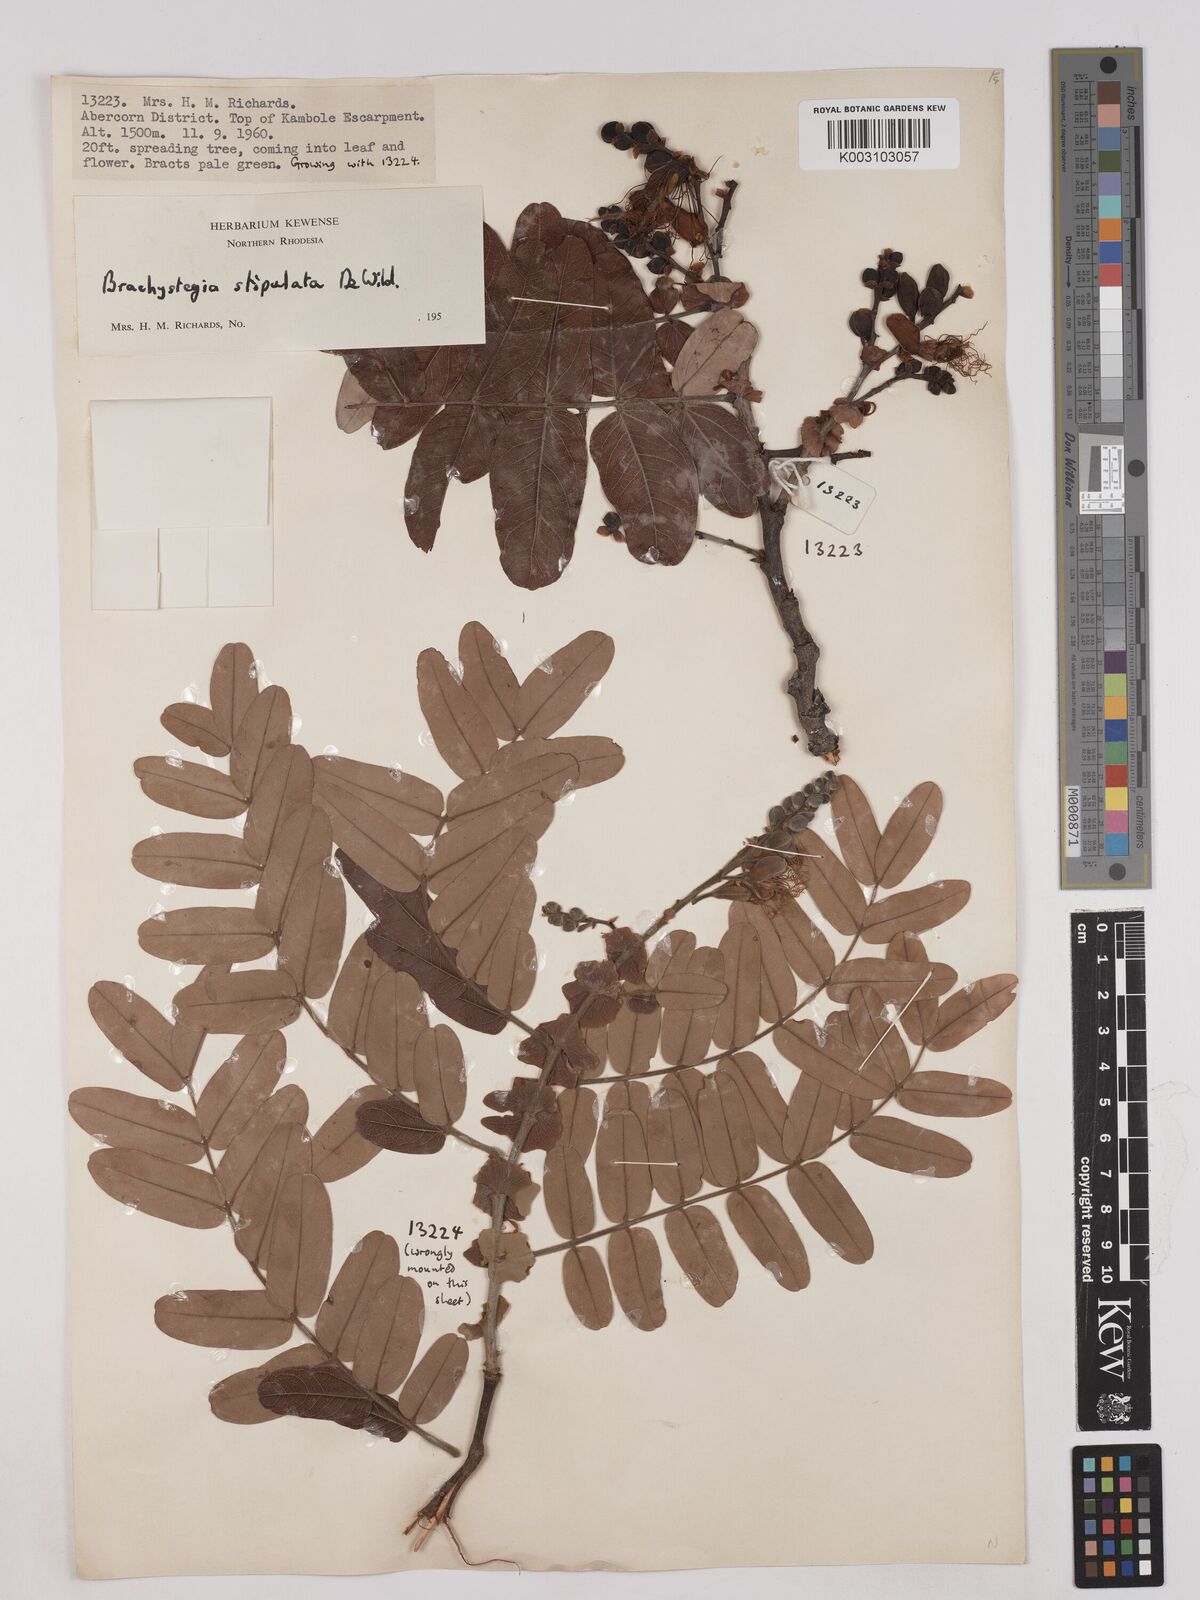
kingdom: Plantae
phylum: Tracheophyta
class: Magnoliopsida
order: Fabales
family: Fabaceae
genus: Brachystegia
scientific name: Brachystegia stipulata
